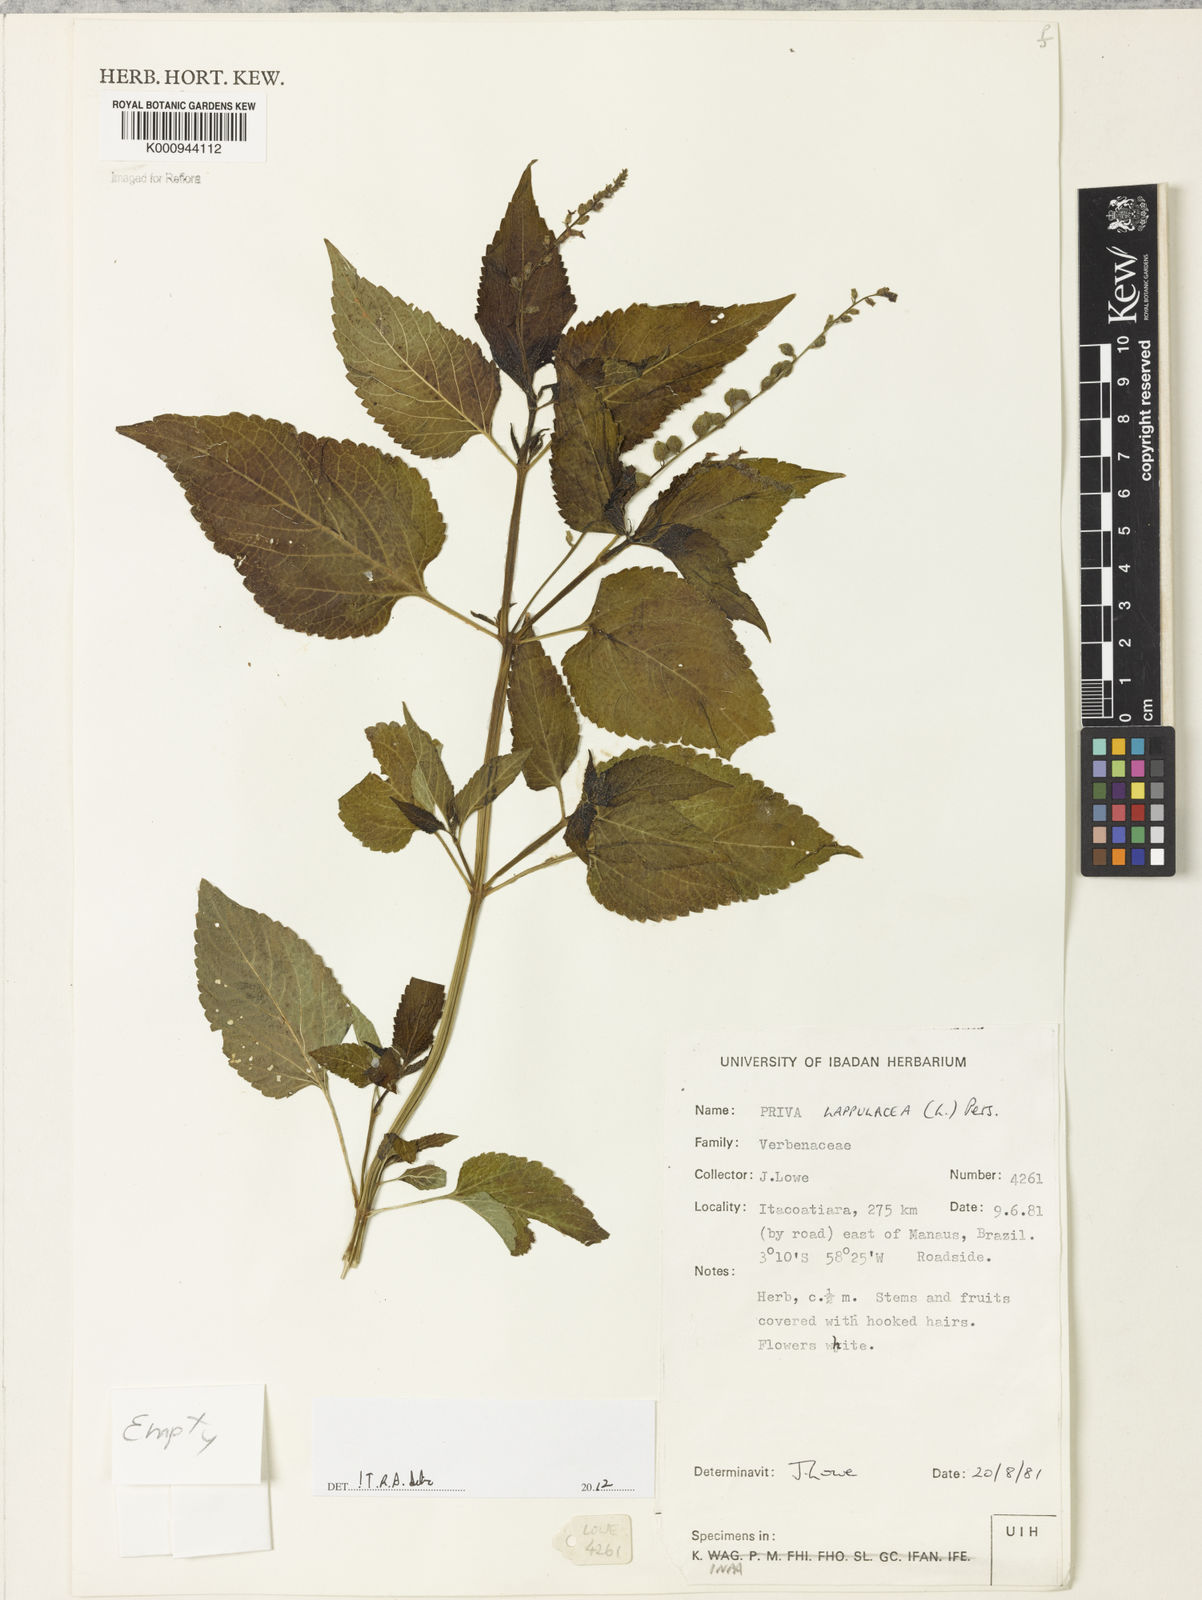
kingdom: Plantae
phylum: Tracheophyta
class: Magnoliopsida
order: Lamiales
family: Verbenaceae
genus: Priva
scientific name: Priva lappulacea
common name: Fasten-'pon-coat
